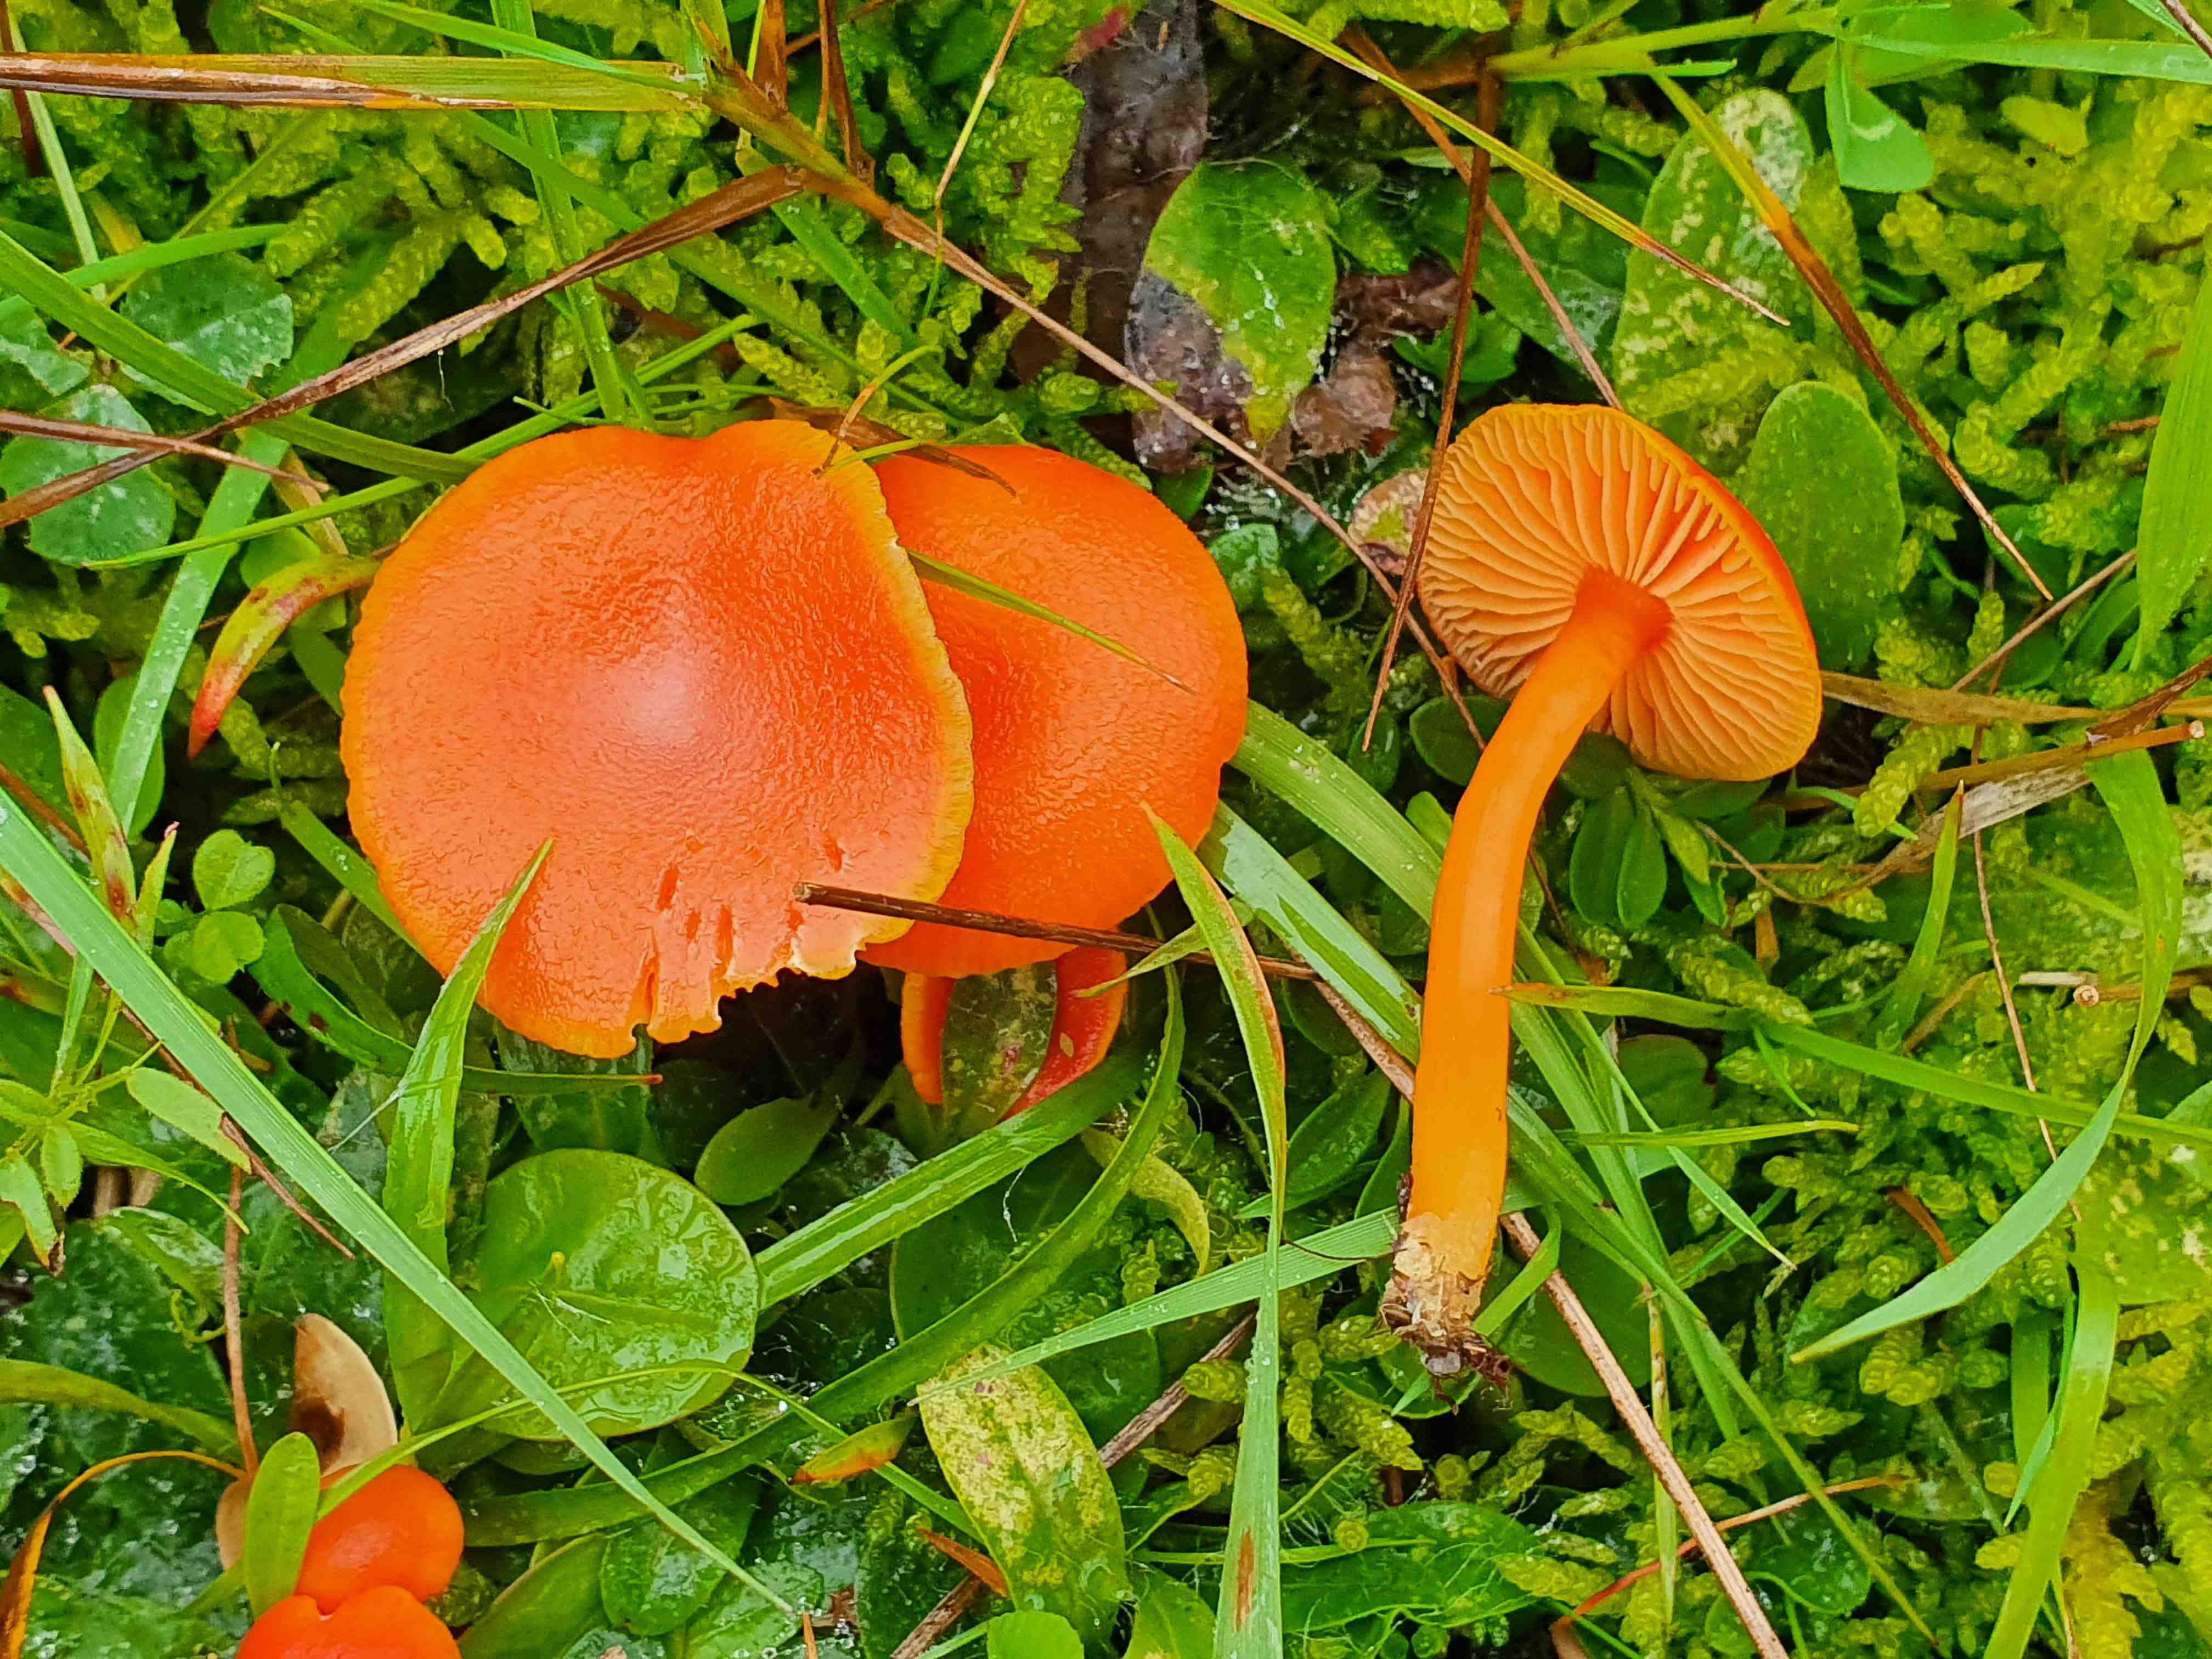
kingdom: Fungi
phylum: Basidiomycota
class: Agaricomycetes
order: Agaricales
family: Hygrophoraceae
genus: Hygrocybe
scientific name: Hygrocybe miniata
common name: mønje-vokshat
